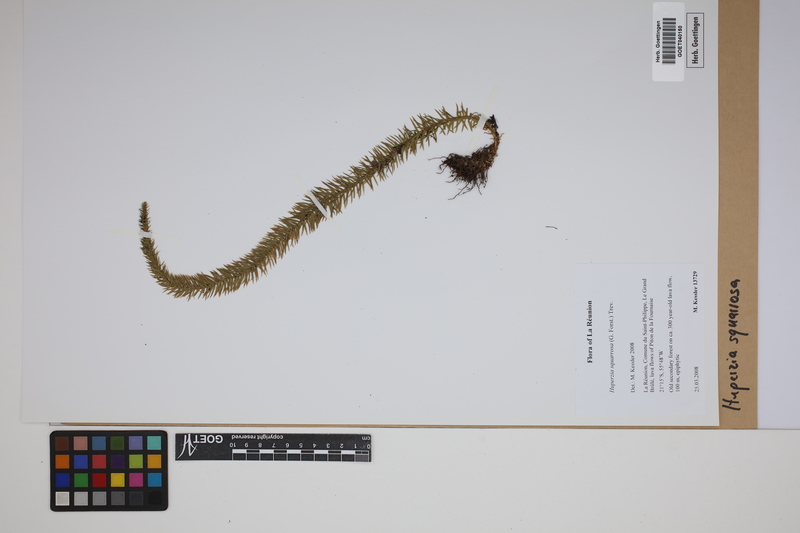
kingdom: Plantae
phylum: Tracheophyta
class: Lycopodiopsida
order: Lycopodiales
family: Lycopodiaceae
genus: Phlegmariurus
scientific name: Phlegmariurus squarrosus
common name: Rock tassel-fern
